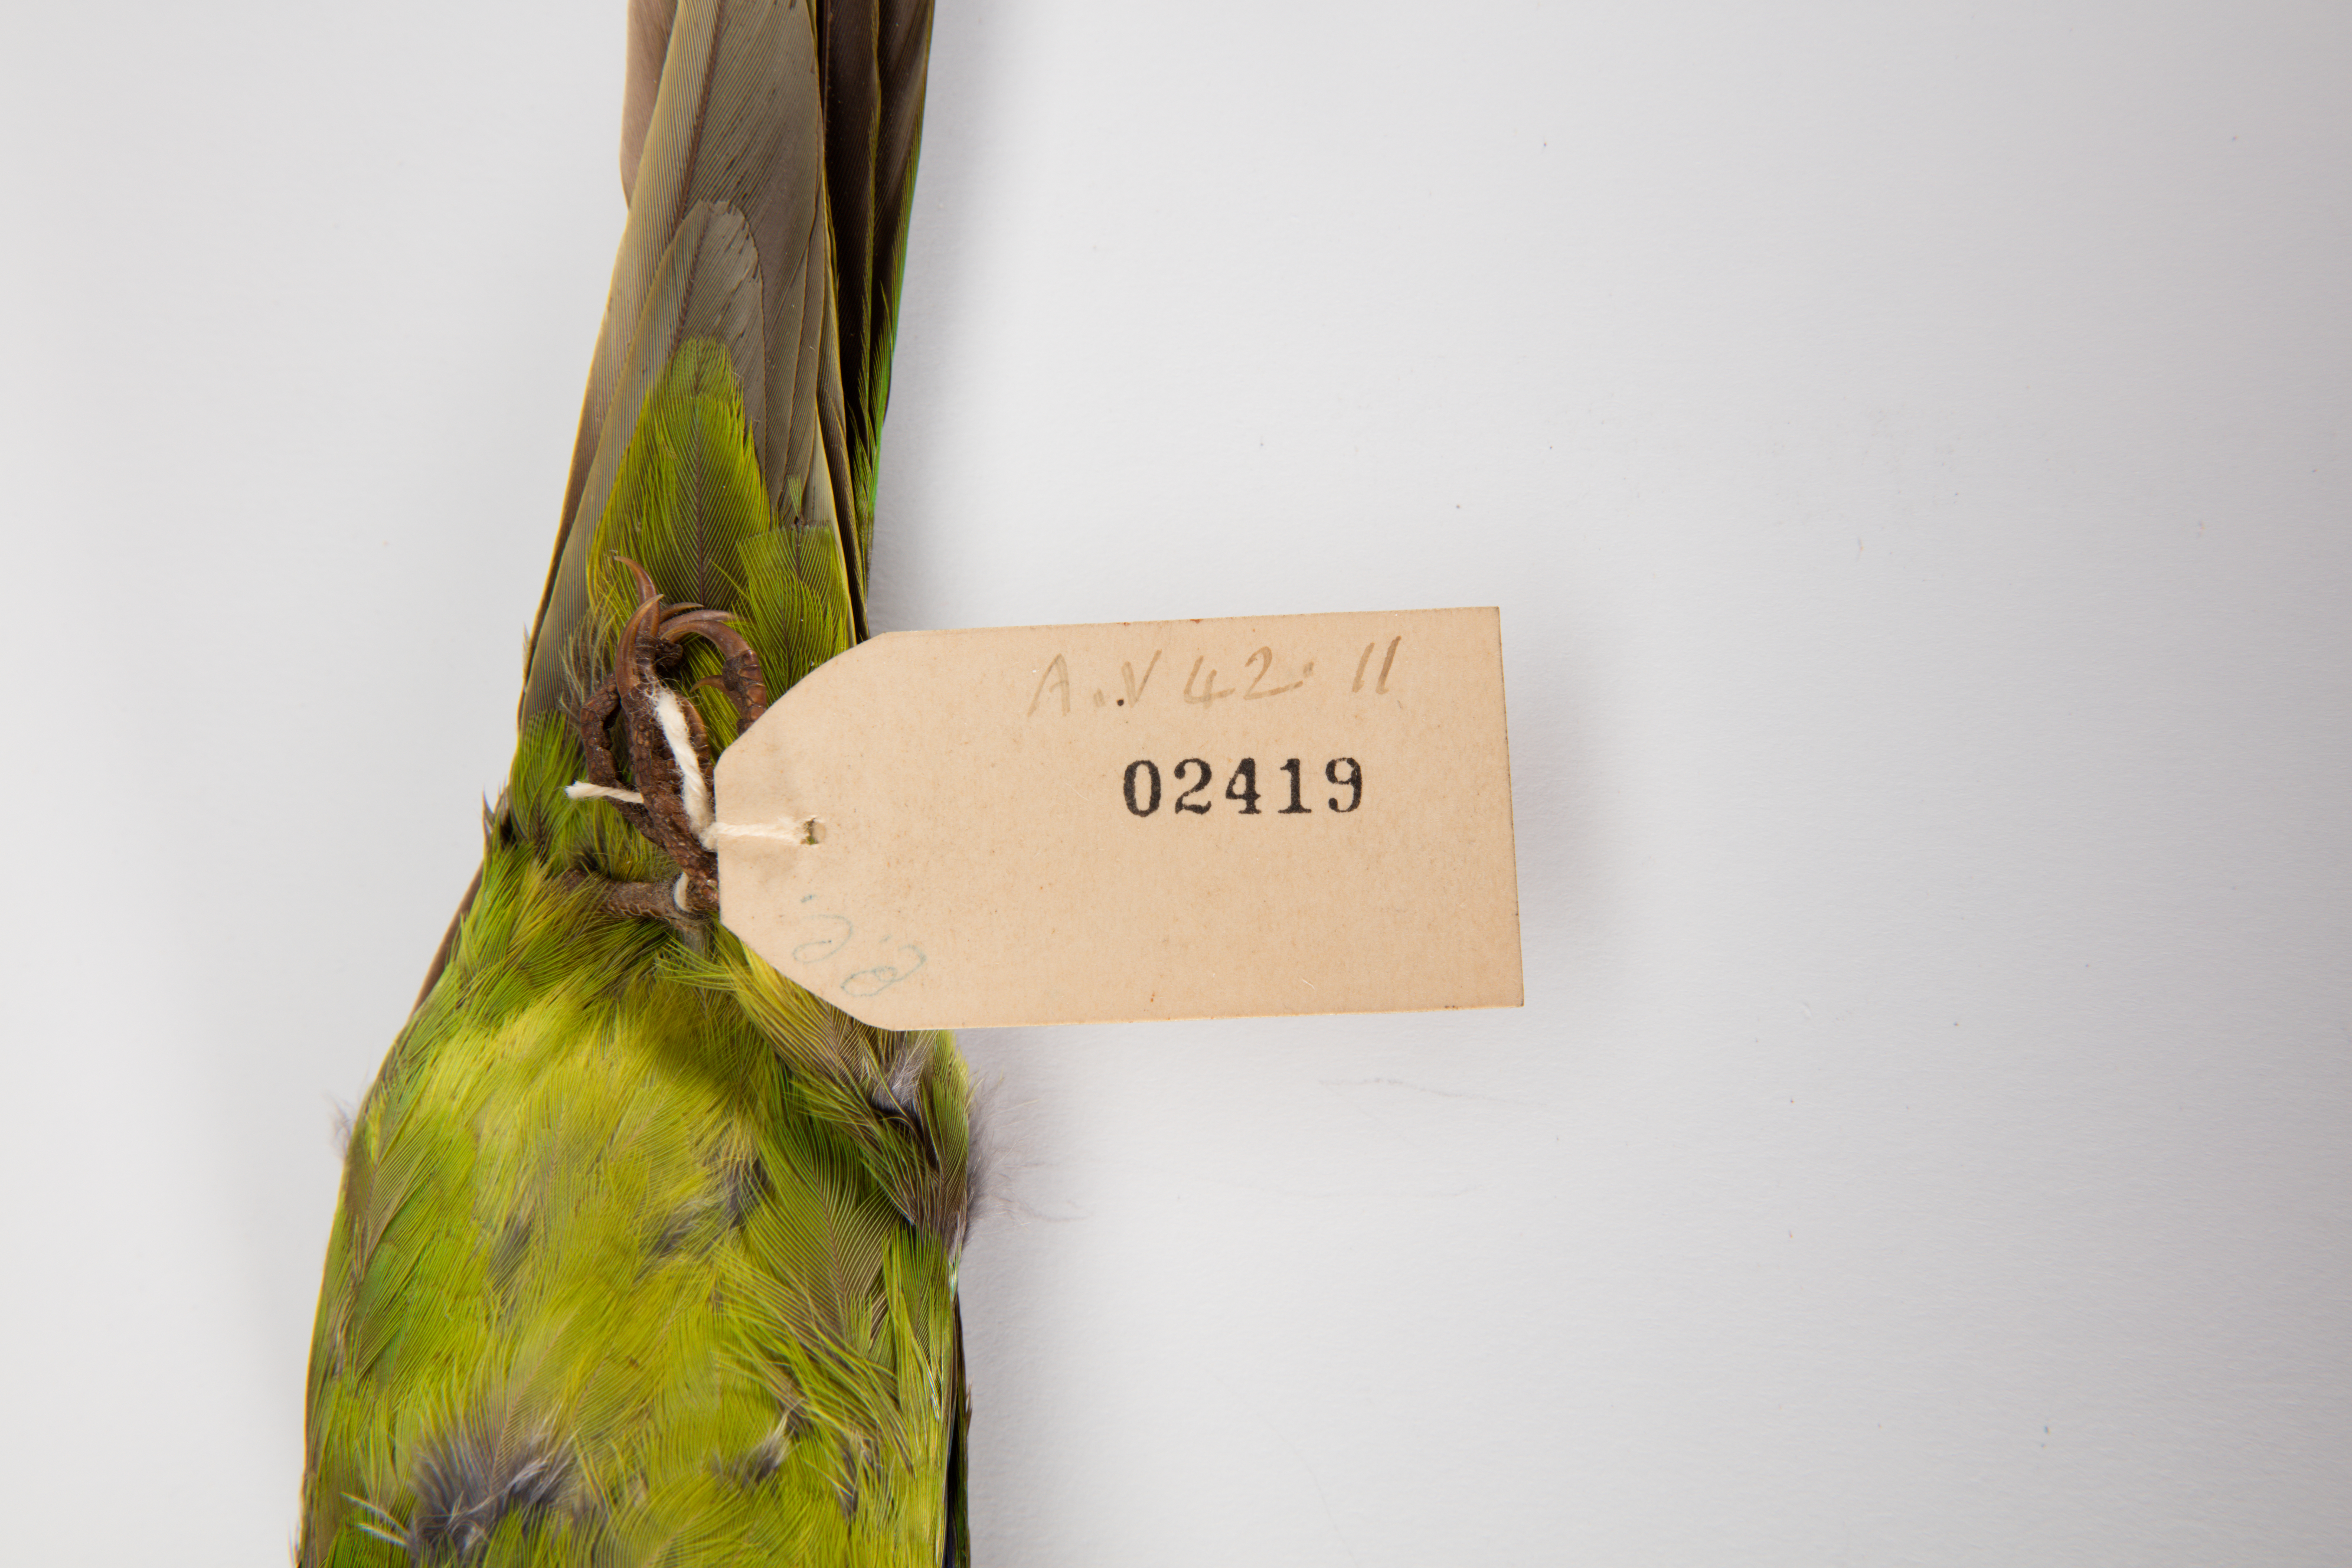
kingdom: Animalia
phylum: Chordata
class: Aves
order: Psittaciformes
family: Psittacidae
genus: Cyanoramphus
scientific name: Cyanoramphus novaezelandiae
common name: Red-fronted parakeet
